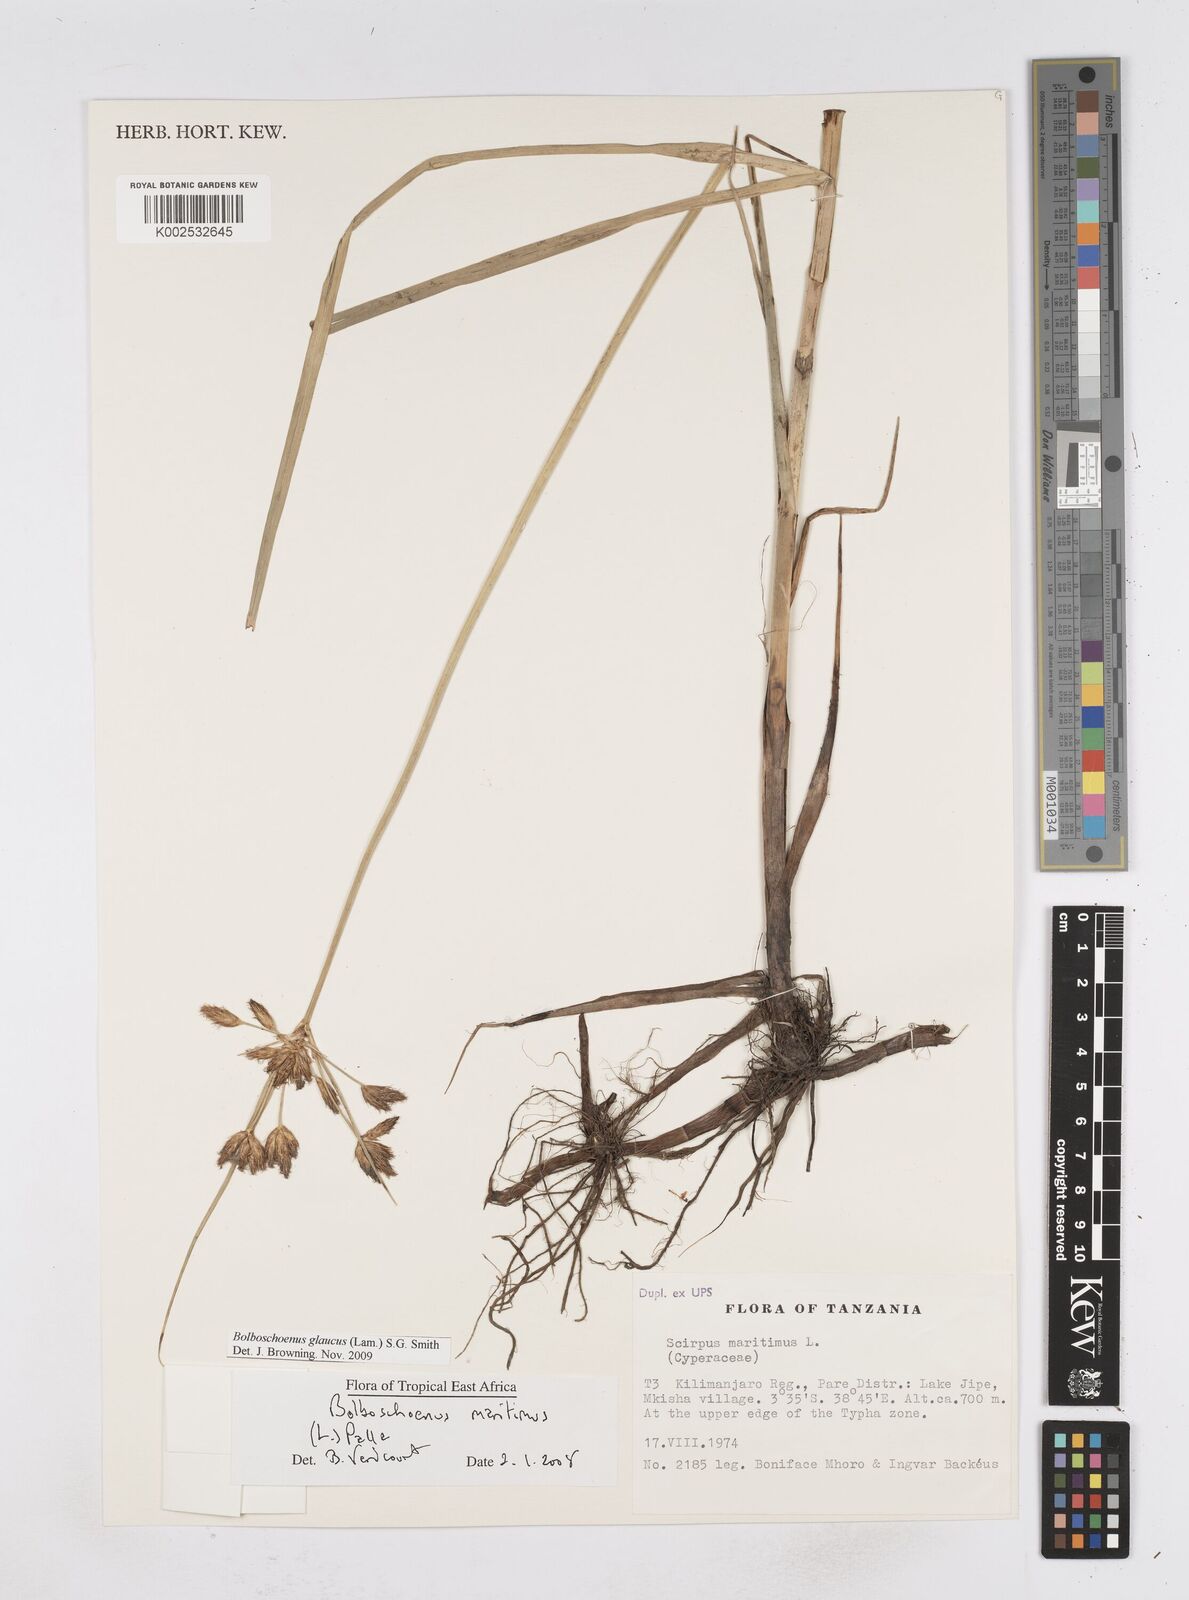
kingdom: Plantae
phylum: Tracheophyta
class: Liliopsida
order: Poales
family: Cyperaceae
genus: Bolboschoenus
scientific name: Bolboschoenus glaucus
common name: Tuberous bulrush
